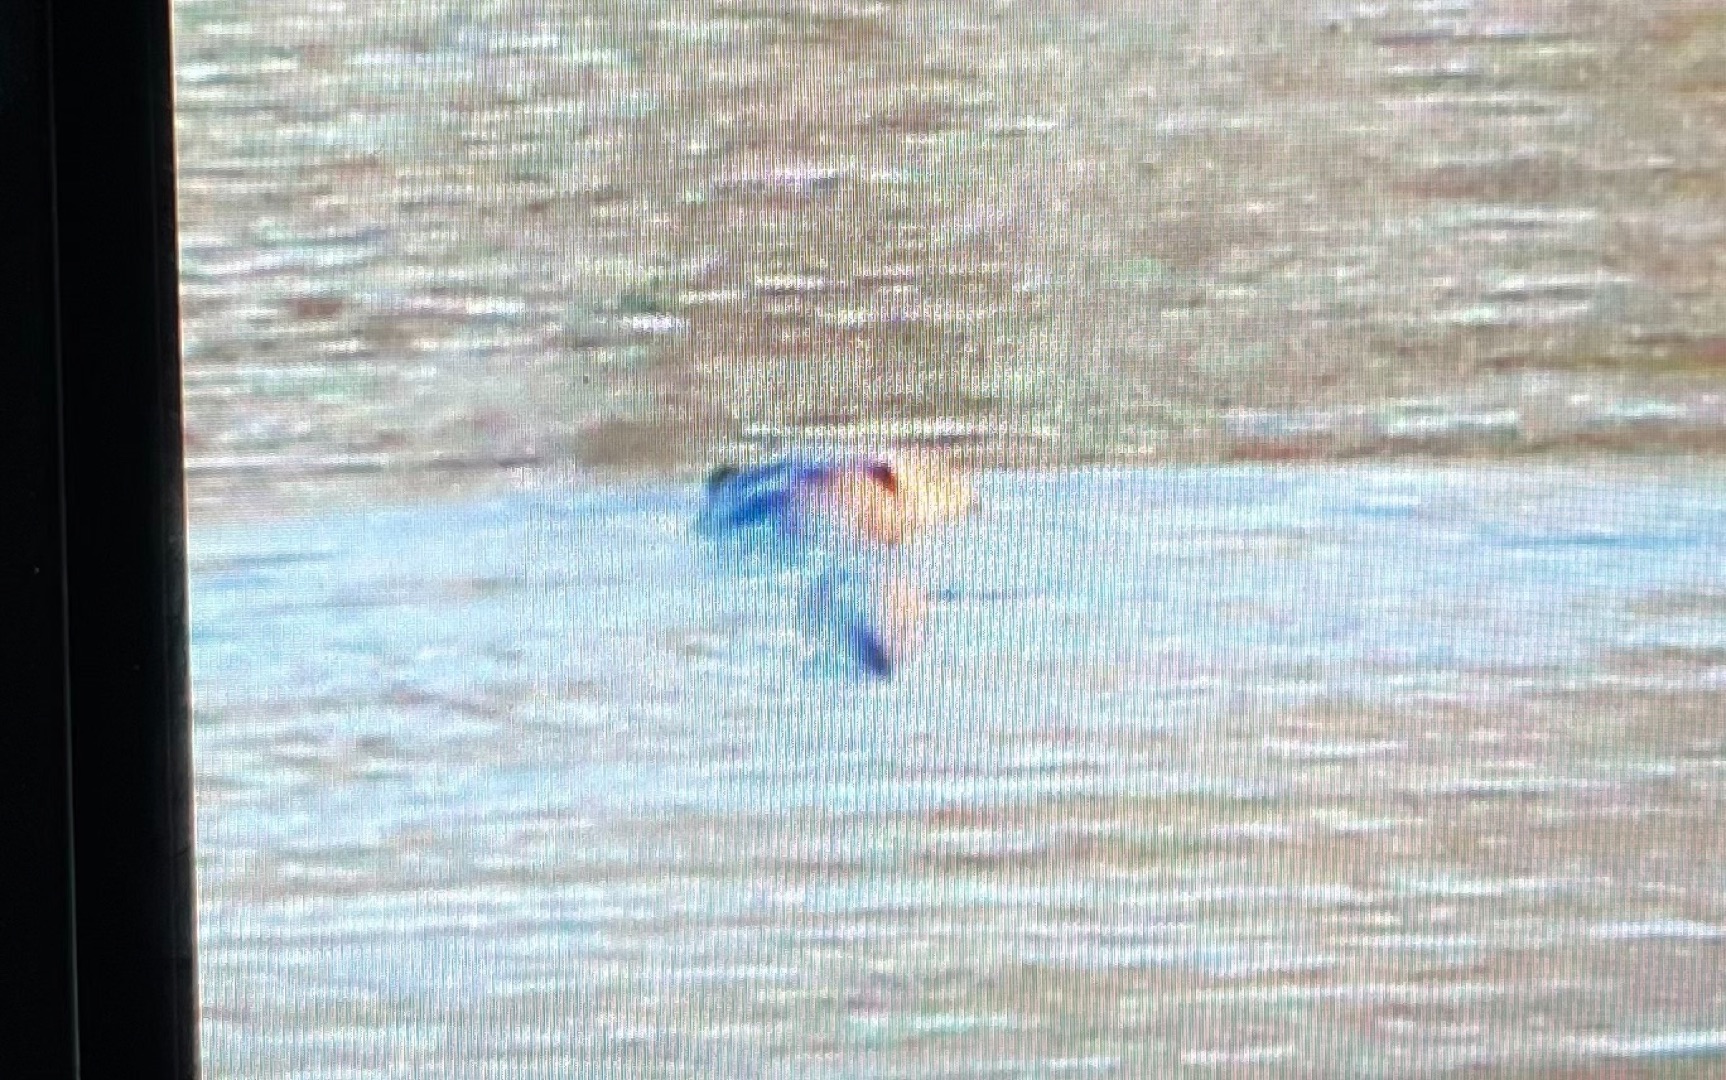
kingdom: Animalia
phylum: Chordata
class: Mammalia
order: Carnivora
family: Mustelidae
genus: Lutra
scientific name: Lutra lutra
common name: Odder
